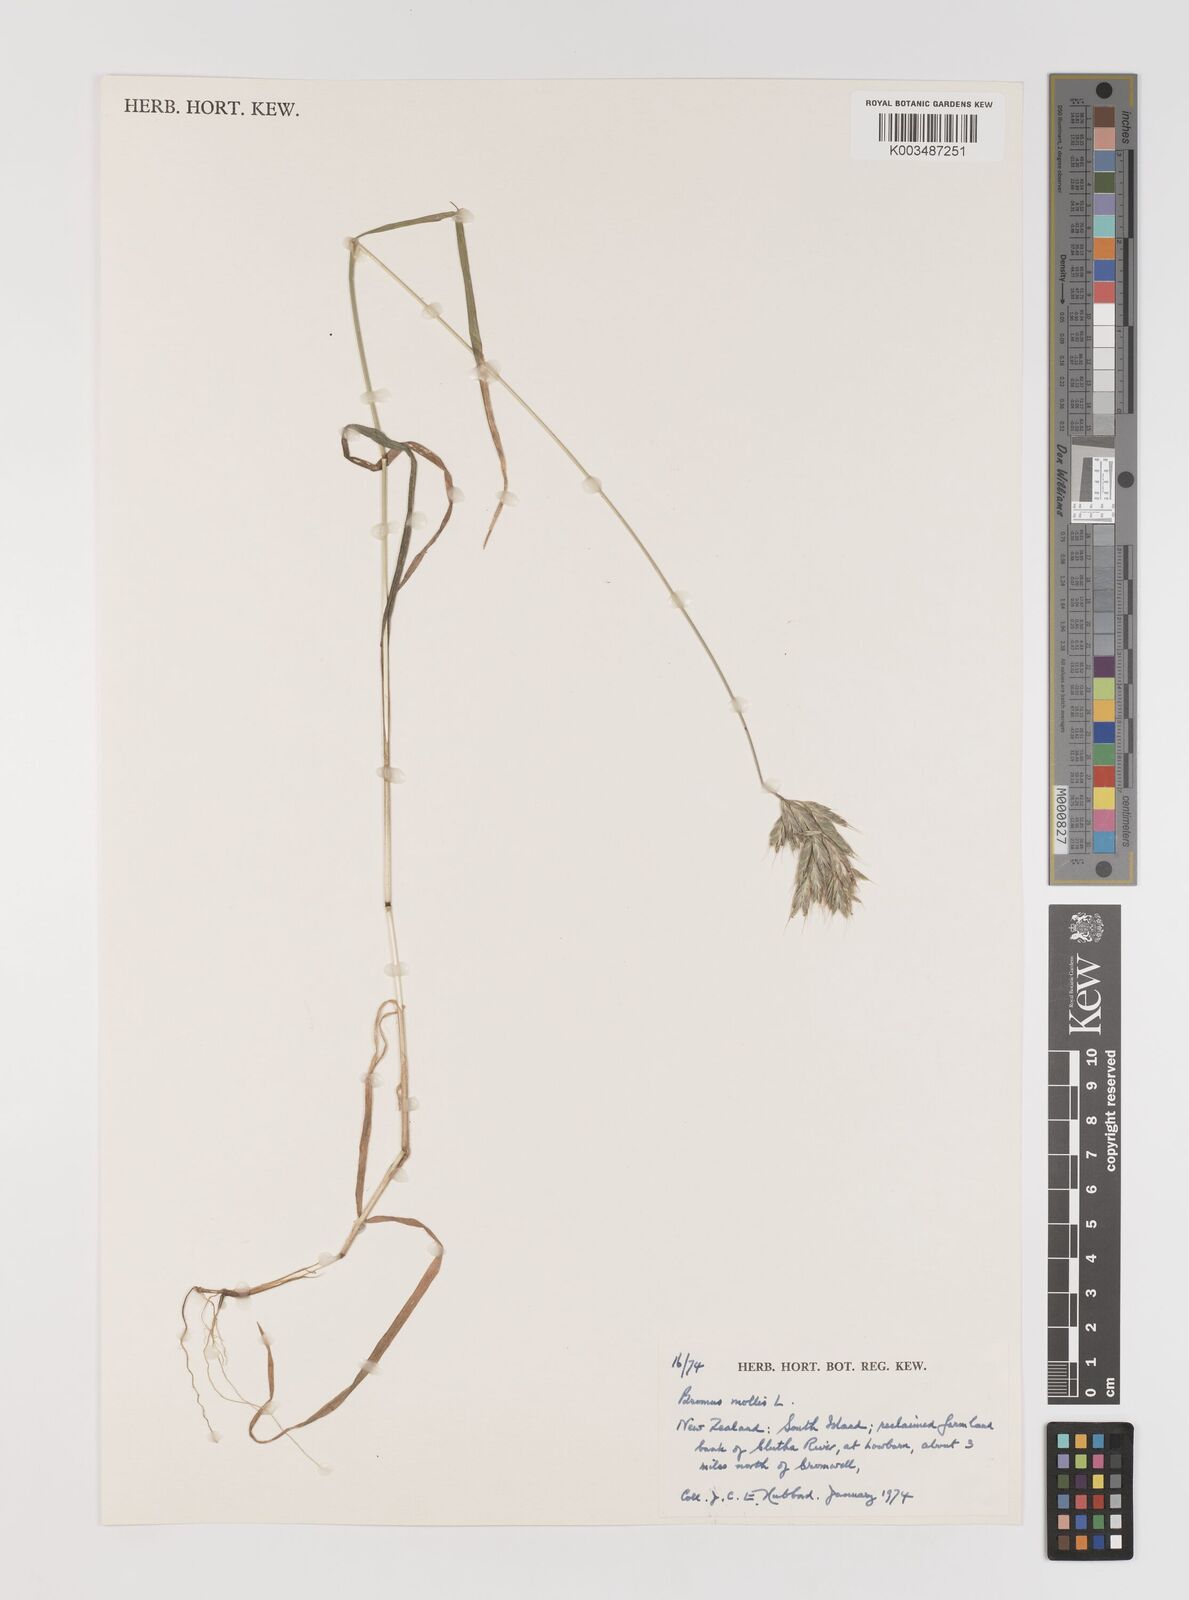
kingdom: Plantae
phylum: Tracheophyta
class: Liliopsida
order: Poales
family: Poaceae
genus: Bromus
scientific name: Bromus hordeaceus
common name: Soft brome
